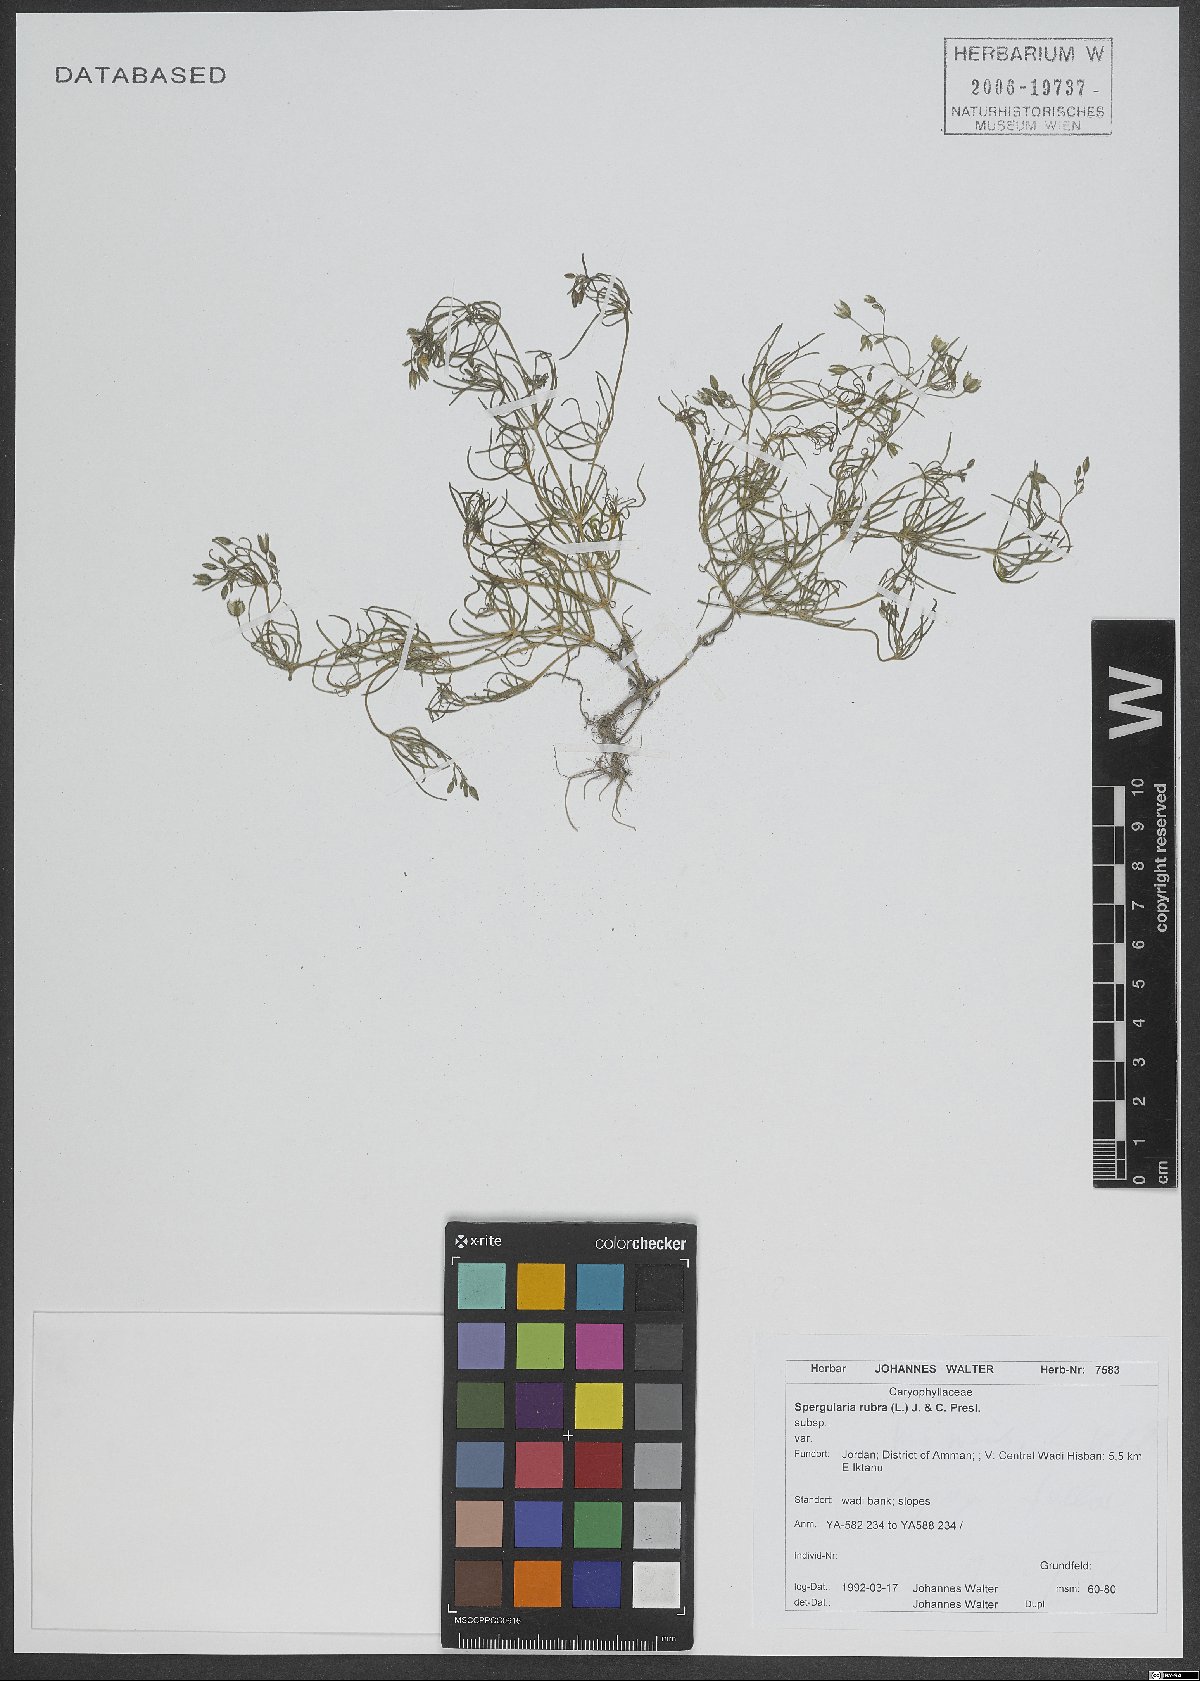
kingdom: Plantae
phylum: Tracheophyta
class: Magnoliopsida
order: Caryophyllales
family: Caryophyllaceae
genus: Spergularia
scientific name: Spergularia rubra
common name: Red sand-spurrey
